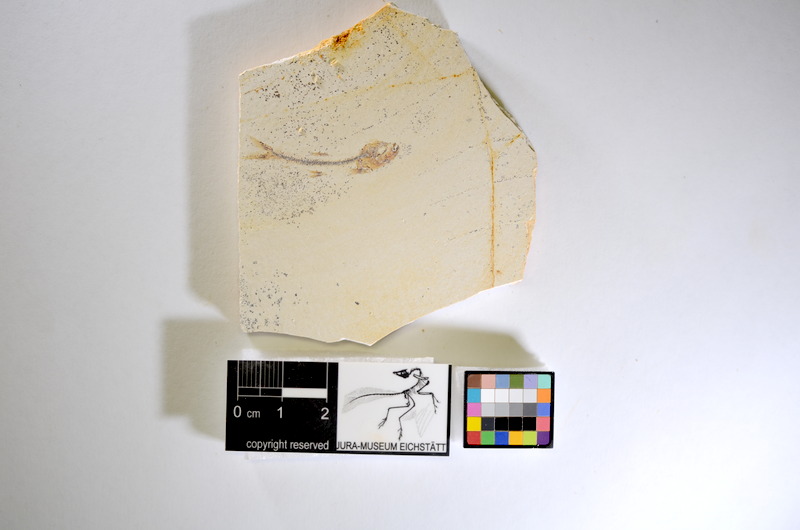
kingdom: Animalia
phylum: Chordata
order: Salmoniformes
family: Orthogonikleithridae
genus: Orthogonikleithrus
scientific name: Orthogonikleithrus hoelli
